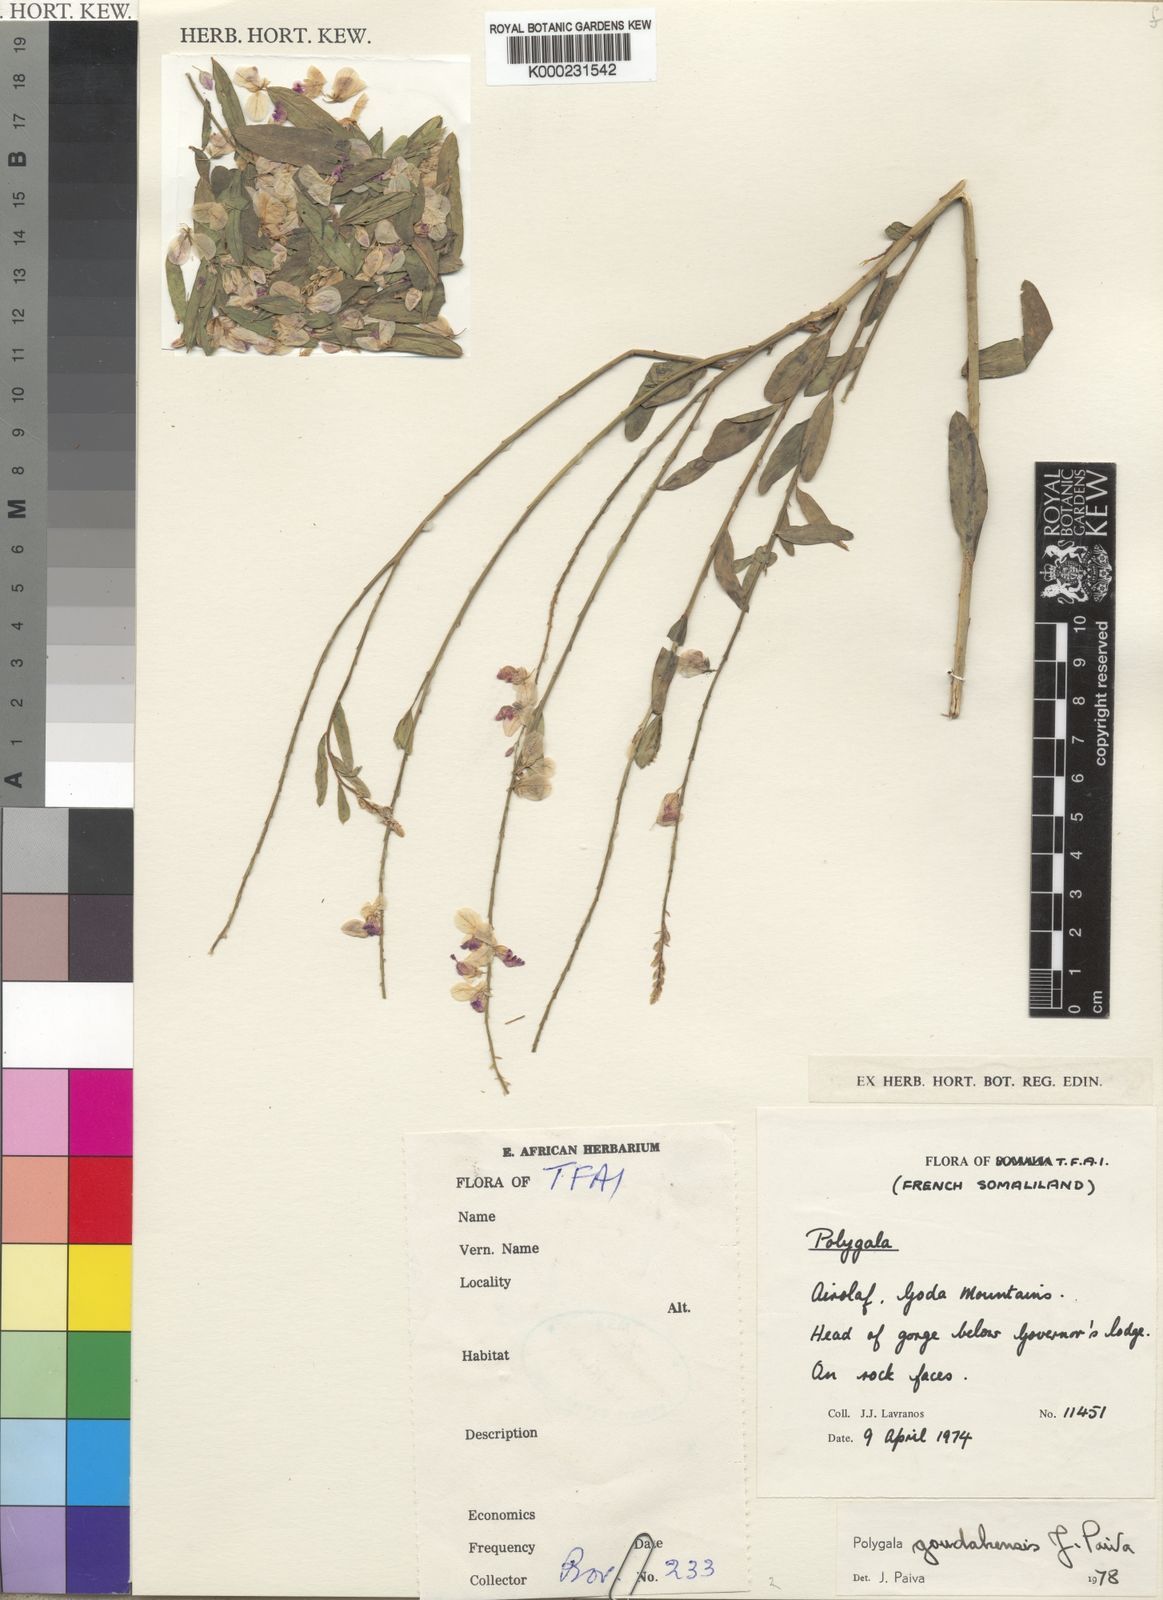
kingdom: Plantae
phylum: Tracheophyta
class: Magnoliopsida
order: Fabales
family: Polygalaceae
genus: Polygala
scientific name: Polygala goudahensis
